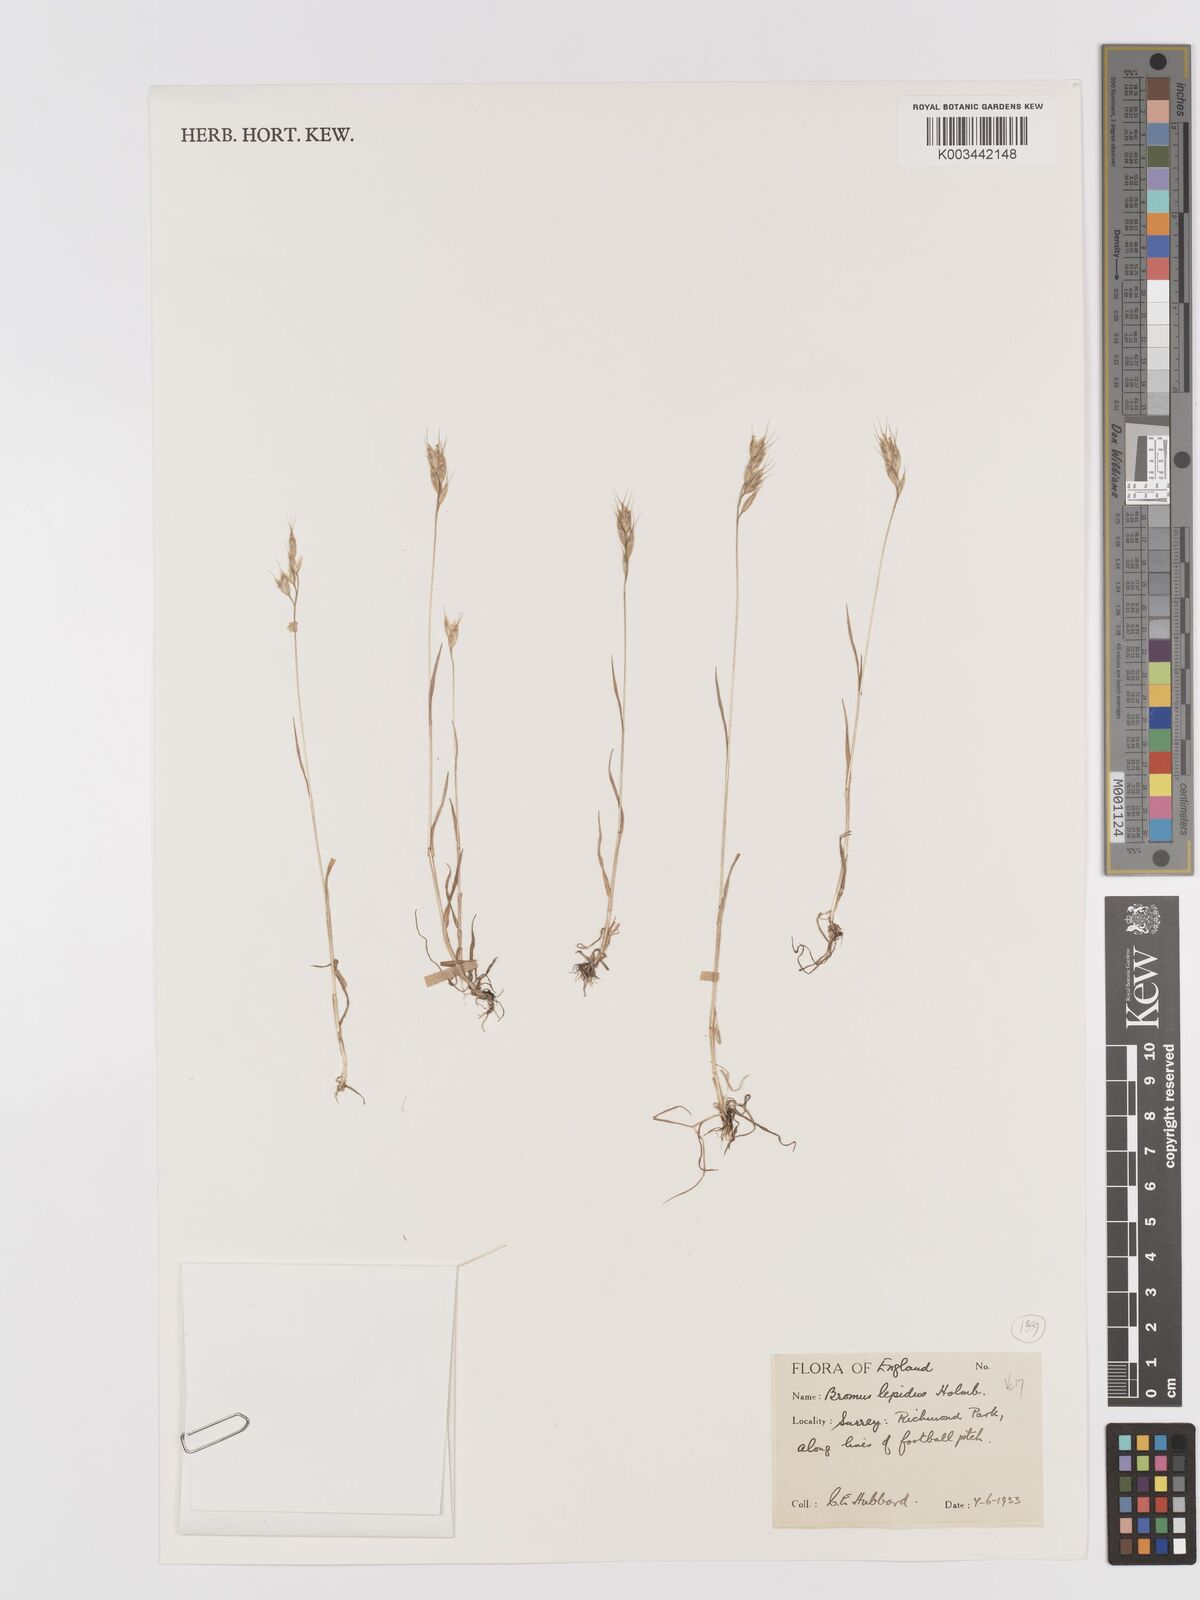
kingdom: Plantae
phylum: Tracheophyta
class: Liliopsida
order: Poales
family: Poaceae
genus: Bromus
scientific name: Bromus lepidus
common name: Slender soft-brome
